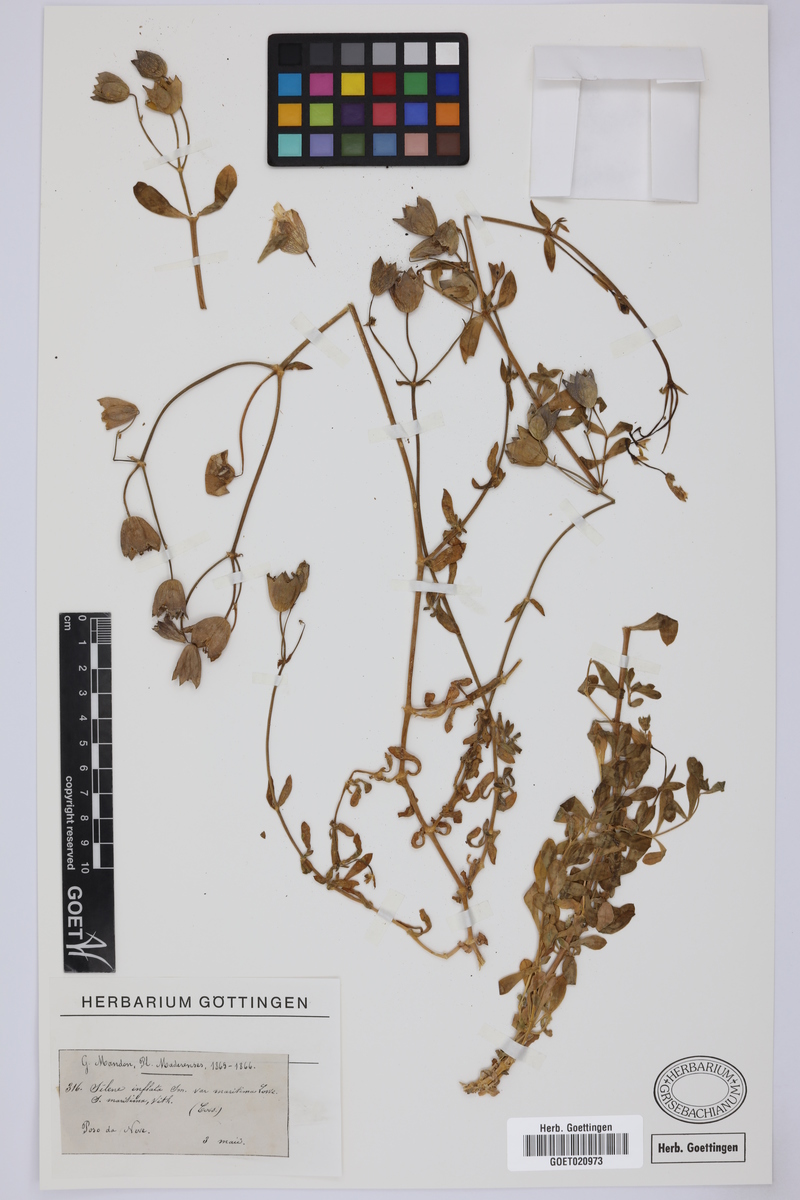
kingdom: Plantae
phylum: Tracheophyta
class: Magnoliopsida
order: Caryophyllales
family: Caryophyllaceae
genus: Silene
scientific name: Silene vulgaris
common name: Bladder campion
